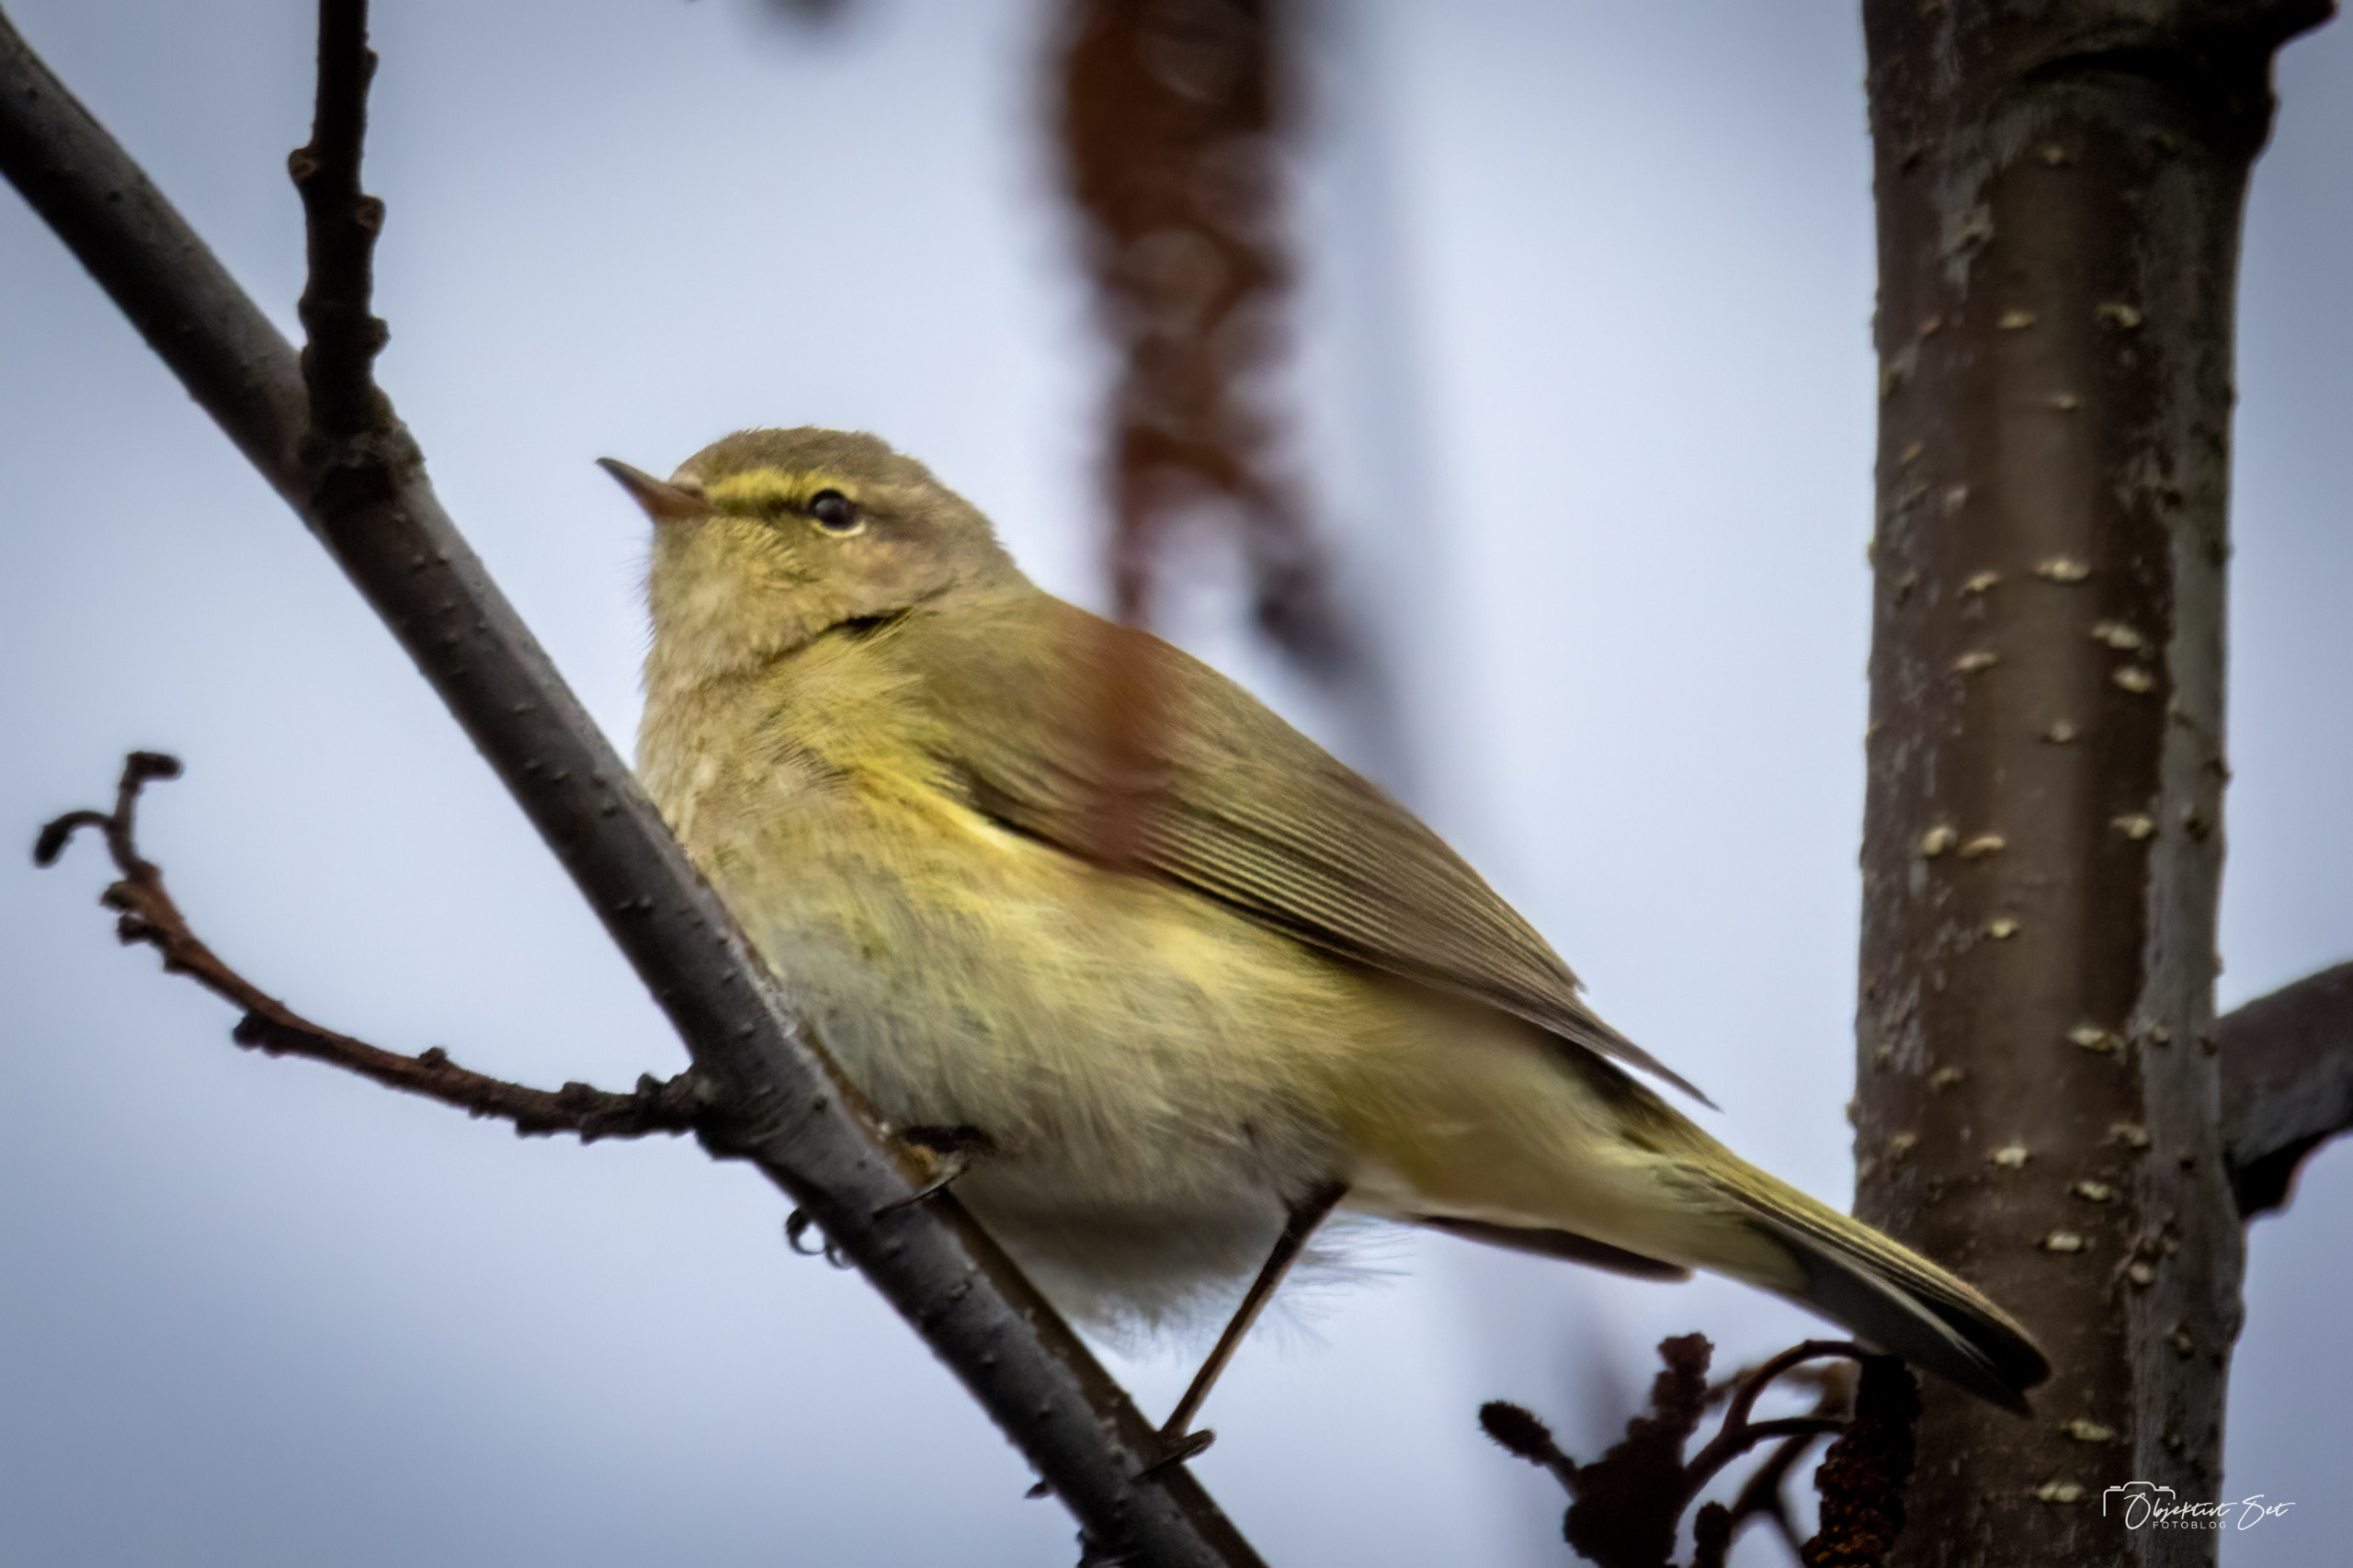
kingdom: Animalia
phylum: Chordata
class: Aves
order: Passeriformes
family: Phylloscopidae
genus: Phylloscopus
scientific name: Phylloscopus collybita
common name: Gransanger
